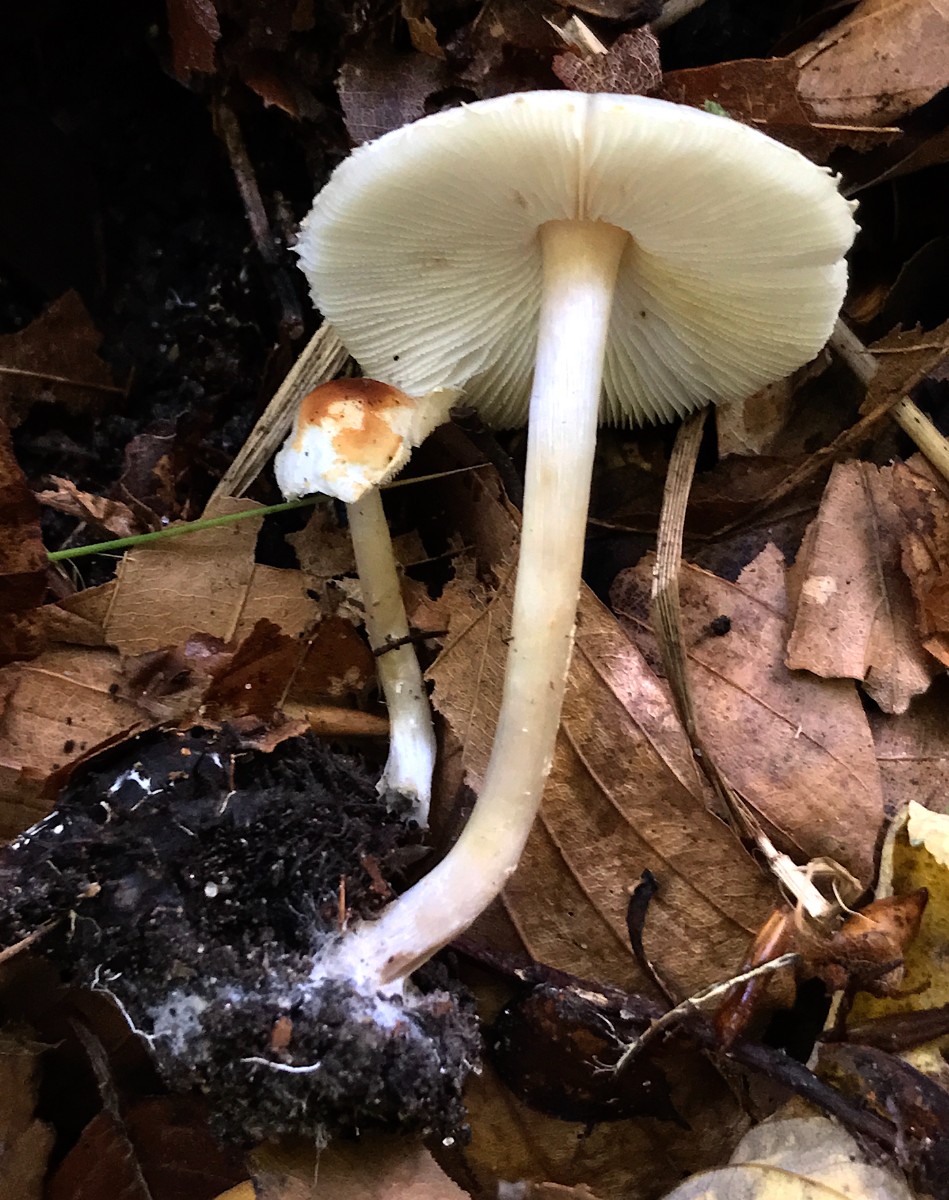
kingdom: Fungi
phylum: Basidiomycota
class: Agaricomycetes
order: Agaricales
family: Agaricaceae
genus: Lepiota
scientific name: Lepiota cristata
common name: stinkende parasolhat
